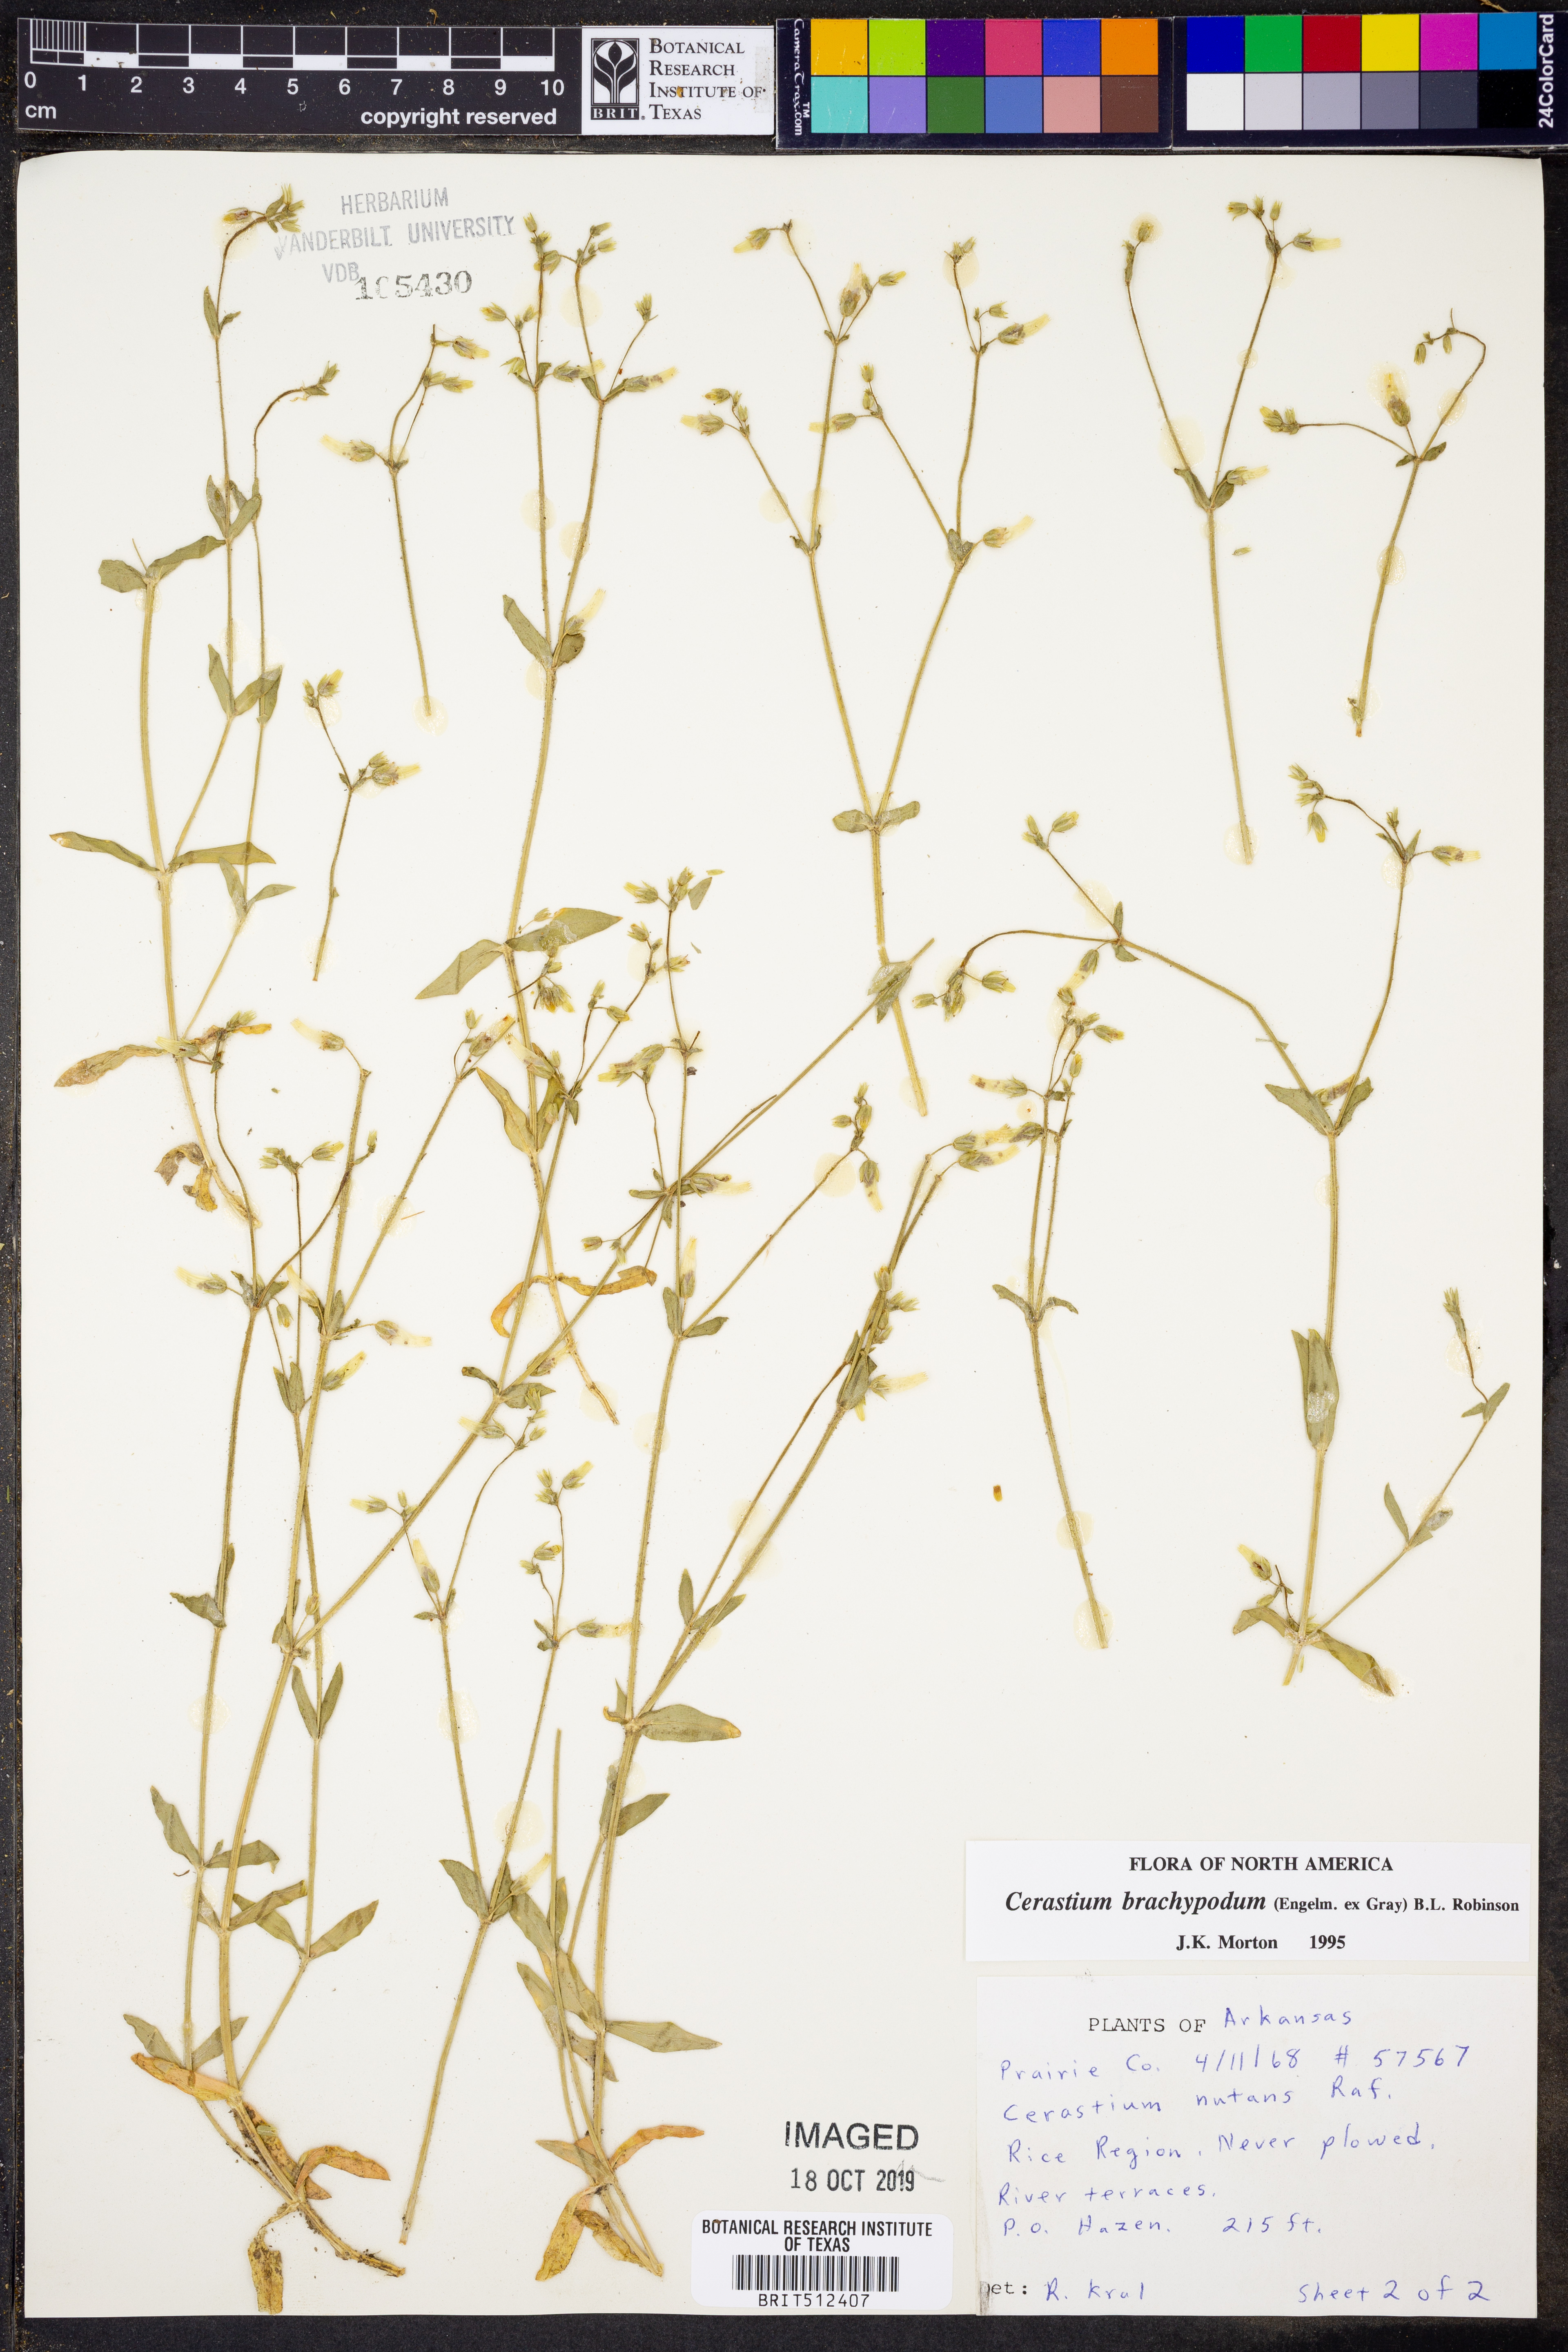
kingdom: Plantae
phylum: Tracheophyta
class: Magnoliopsida
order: Caryophyllales
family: Caryophyllaceae
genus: Cerastium
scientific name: Cerastium brachypodum
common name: Short-pedicelled nodding chickweed
